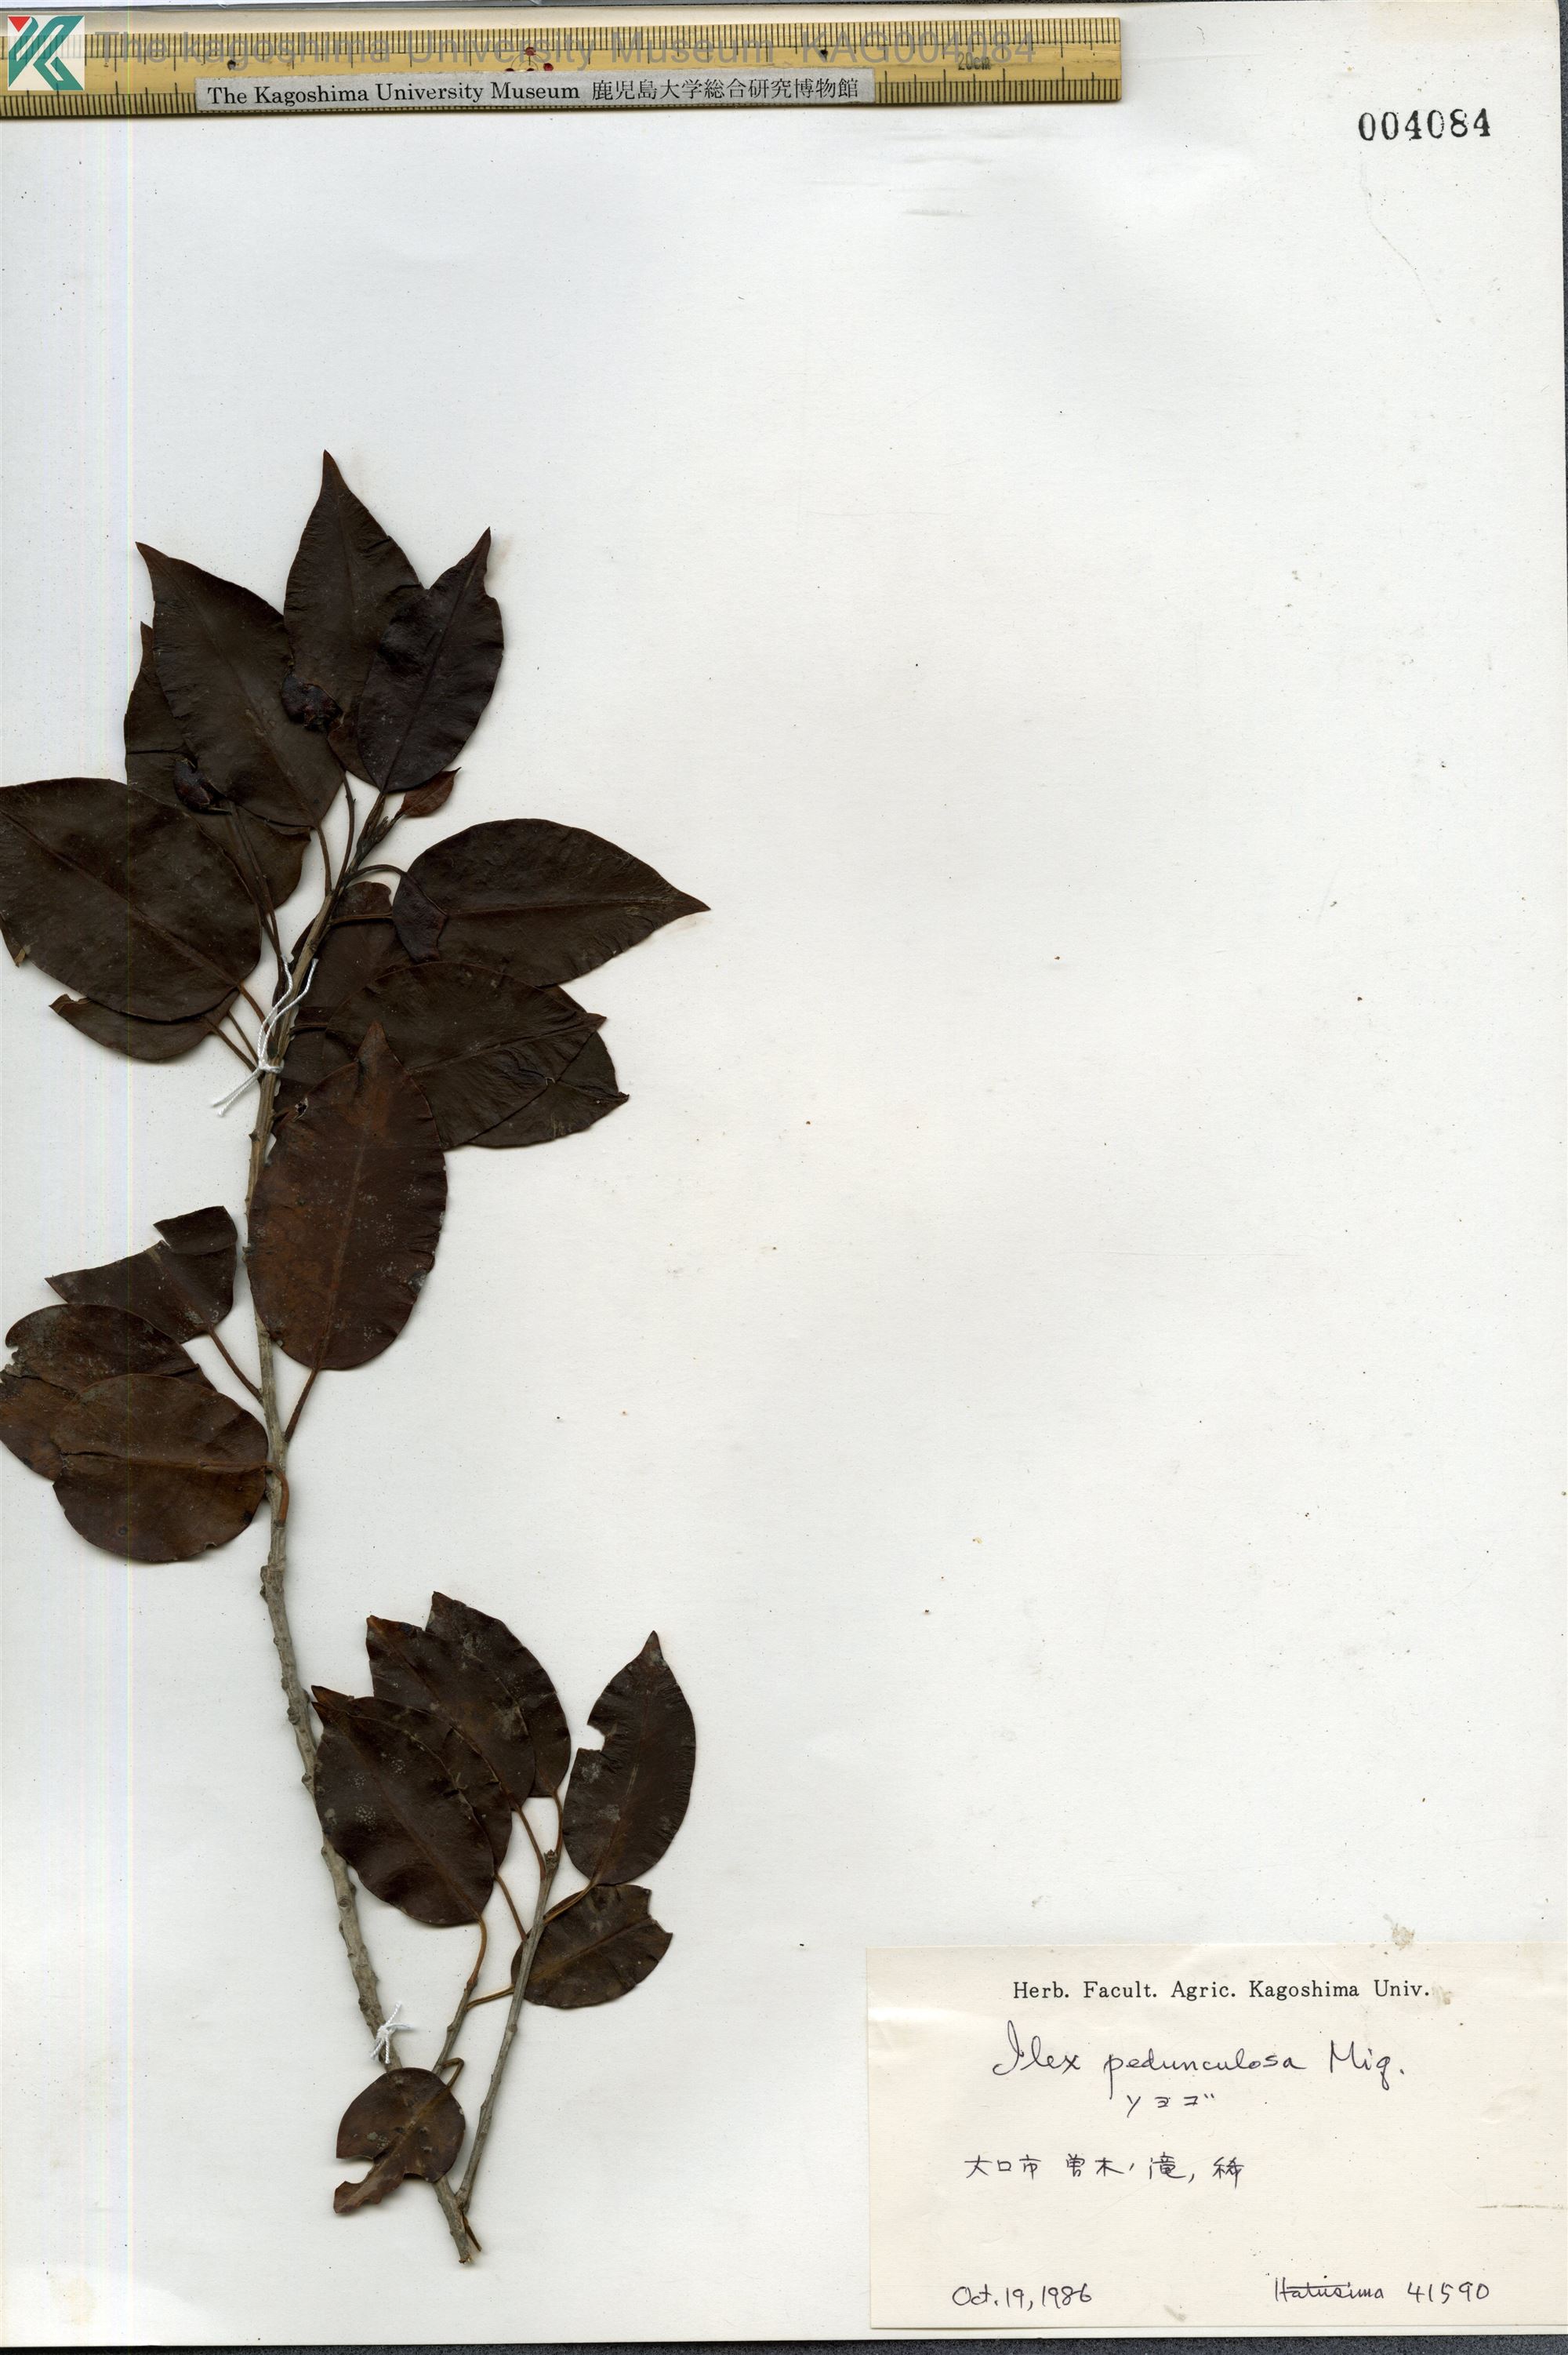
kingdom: Plantae
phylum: Tracheophyta
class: Magnoliopsida
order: Aquifoliales
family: Aquifoliaceae
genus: Ilex
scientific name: Ilex pedunculosa
